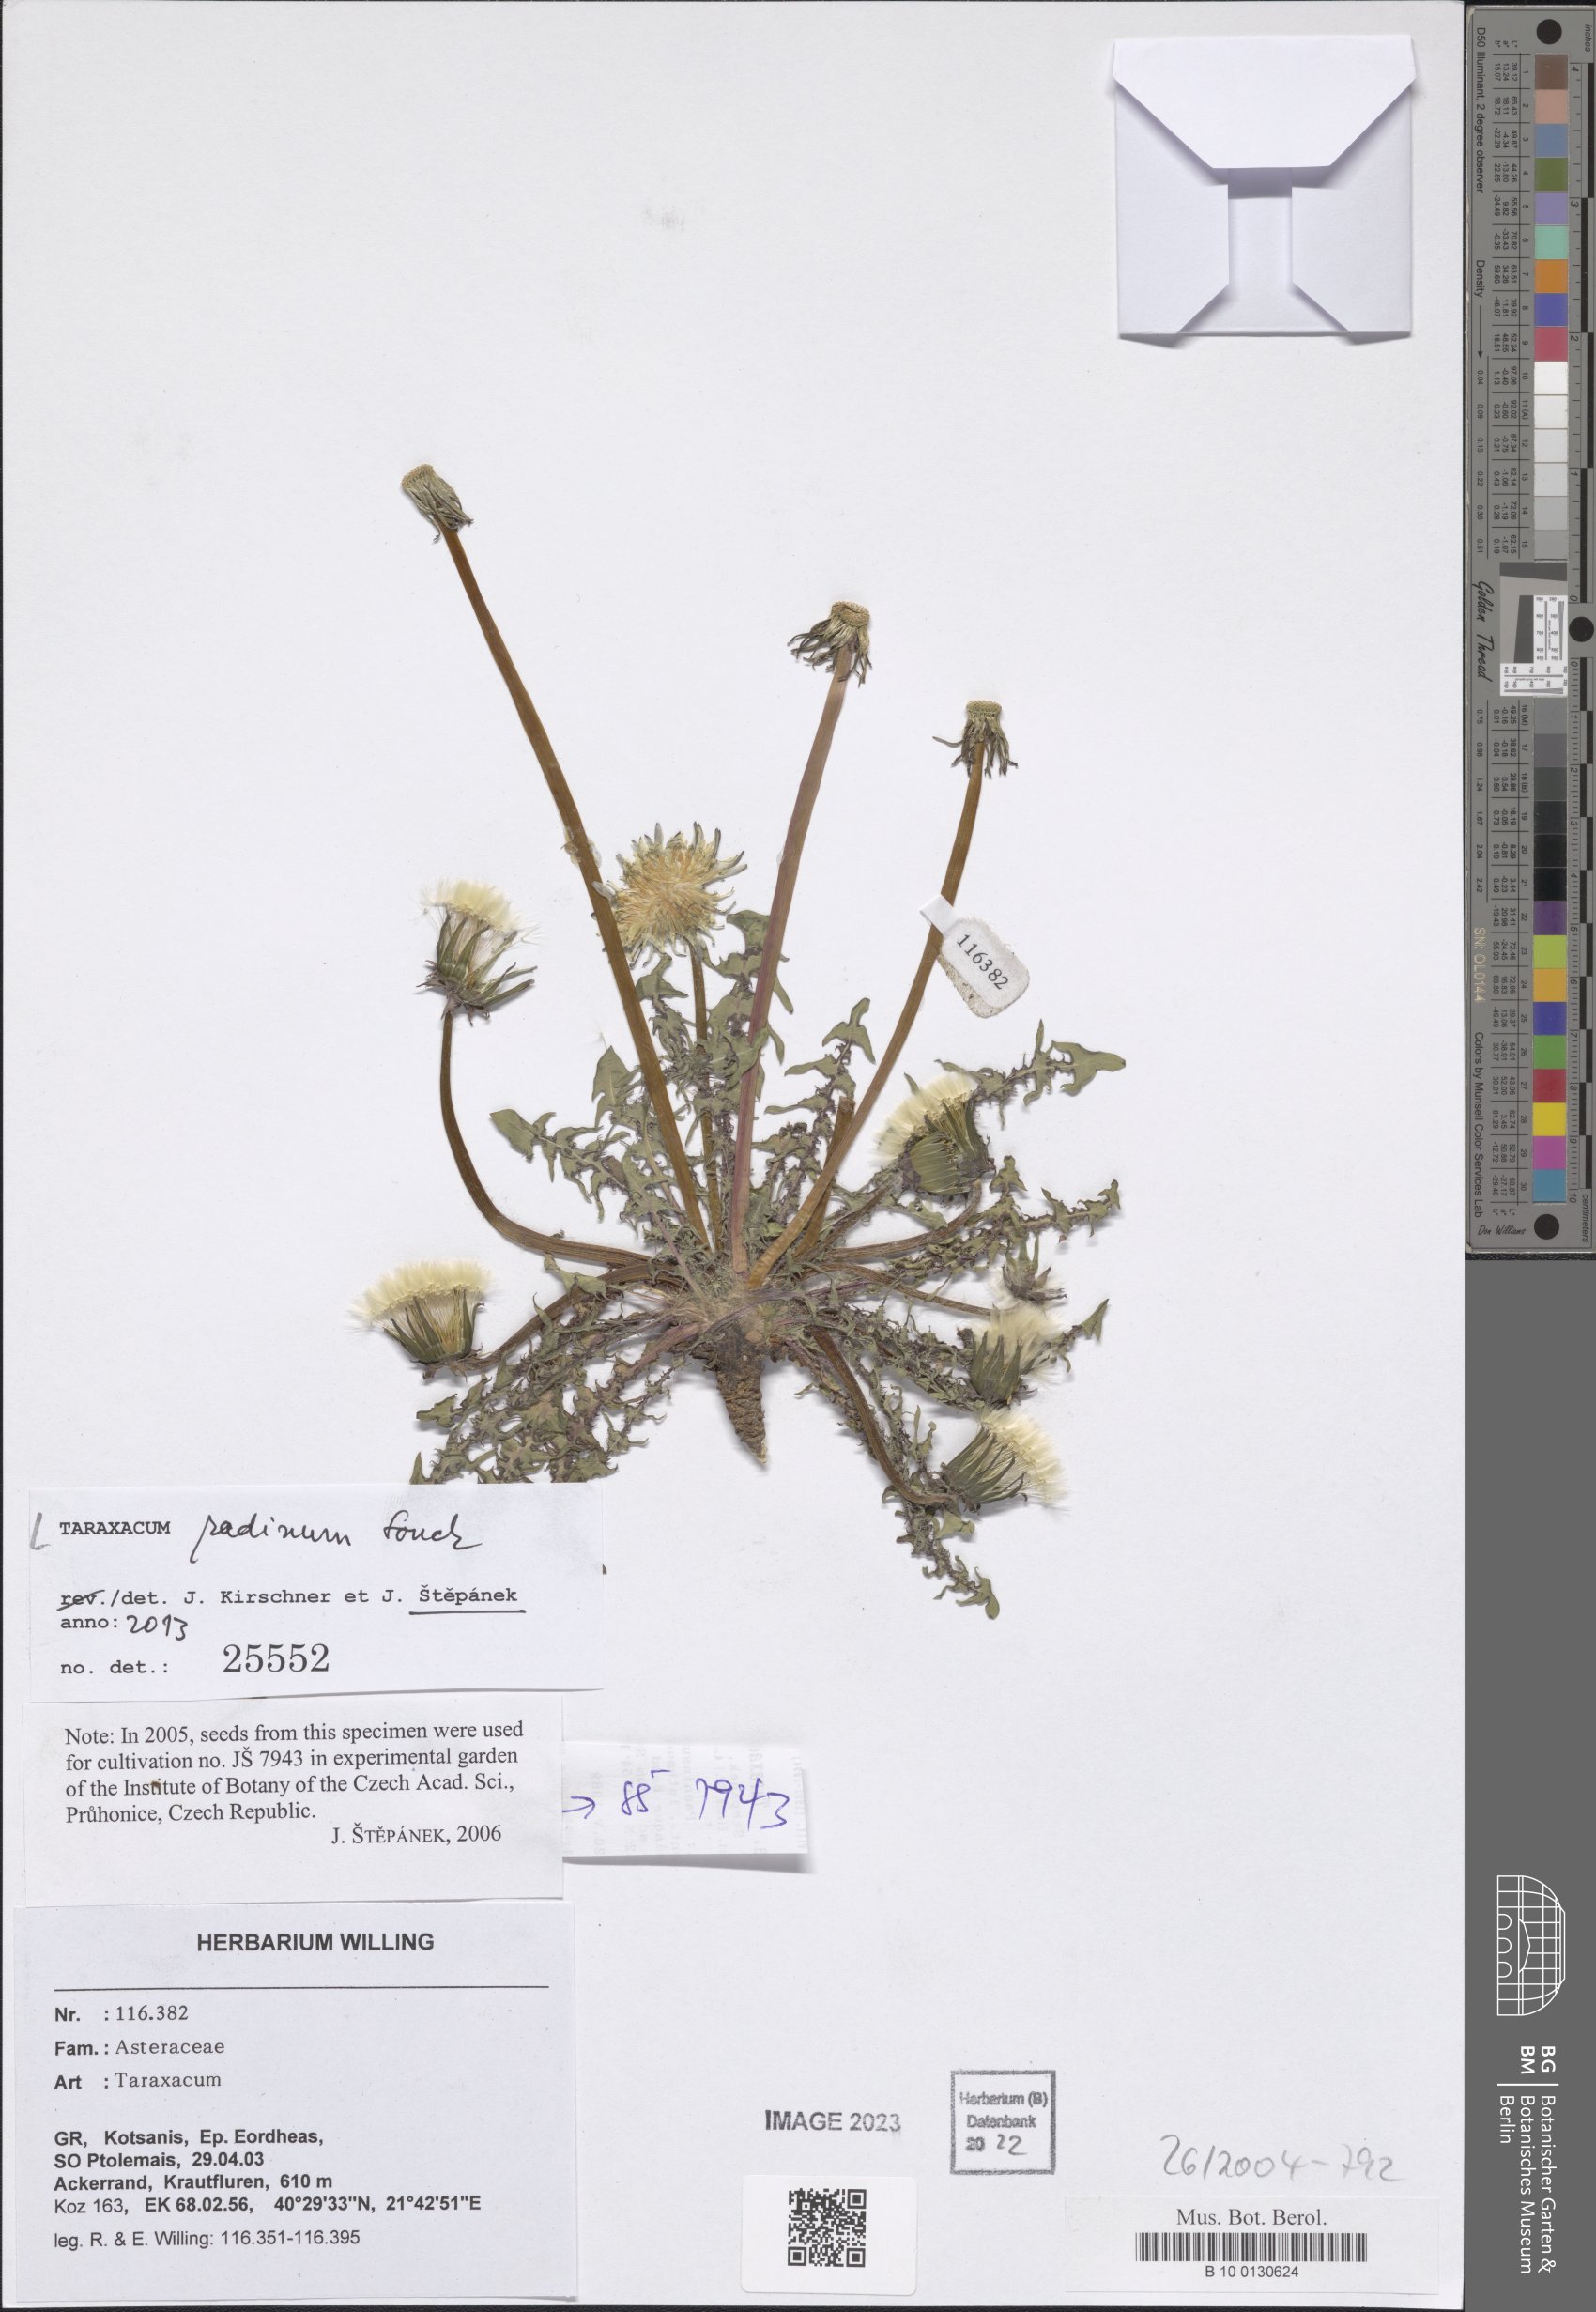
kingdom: Plantae
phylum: Tracheophyta
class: Magnoliopsida
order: Asterales
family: Asteraceae
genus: Taraxacum
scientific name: Taraxacum radinum
